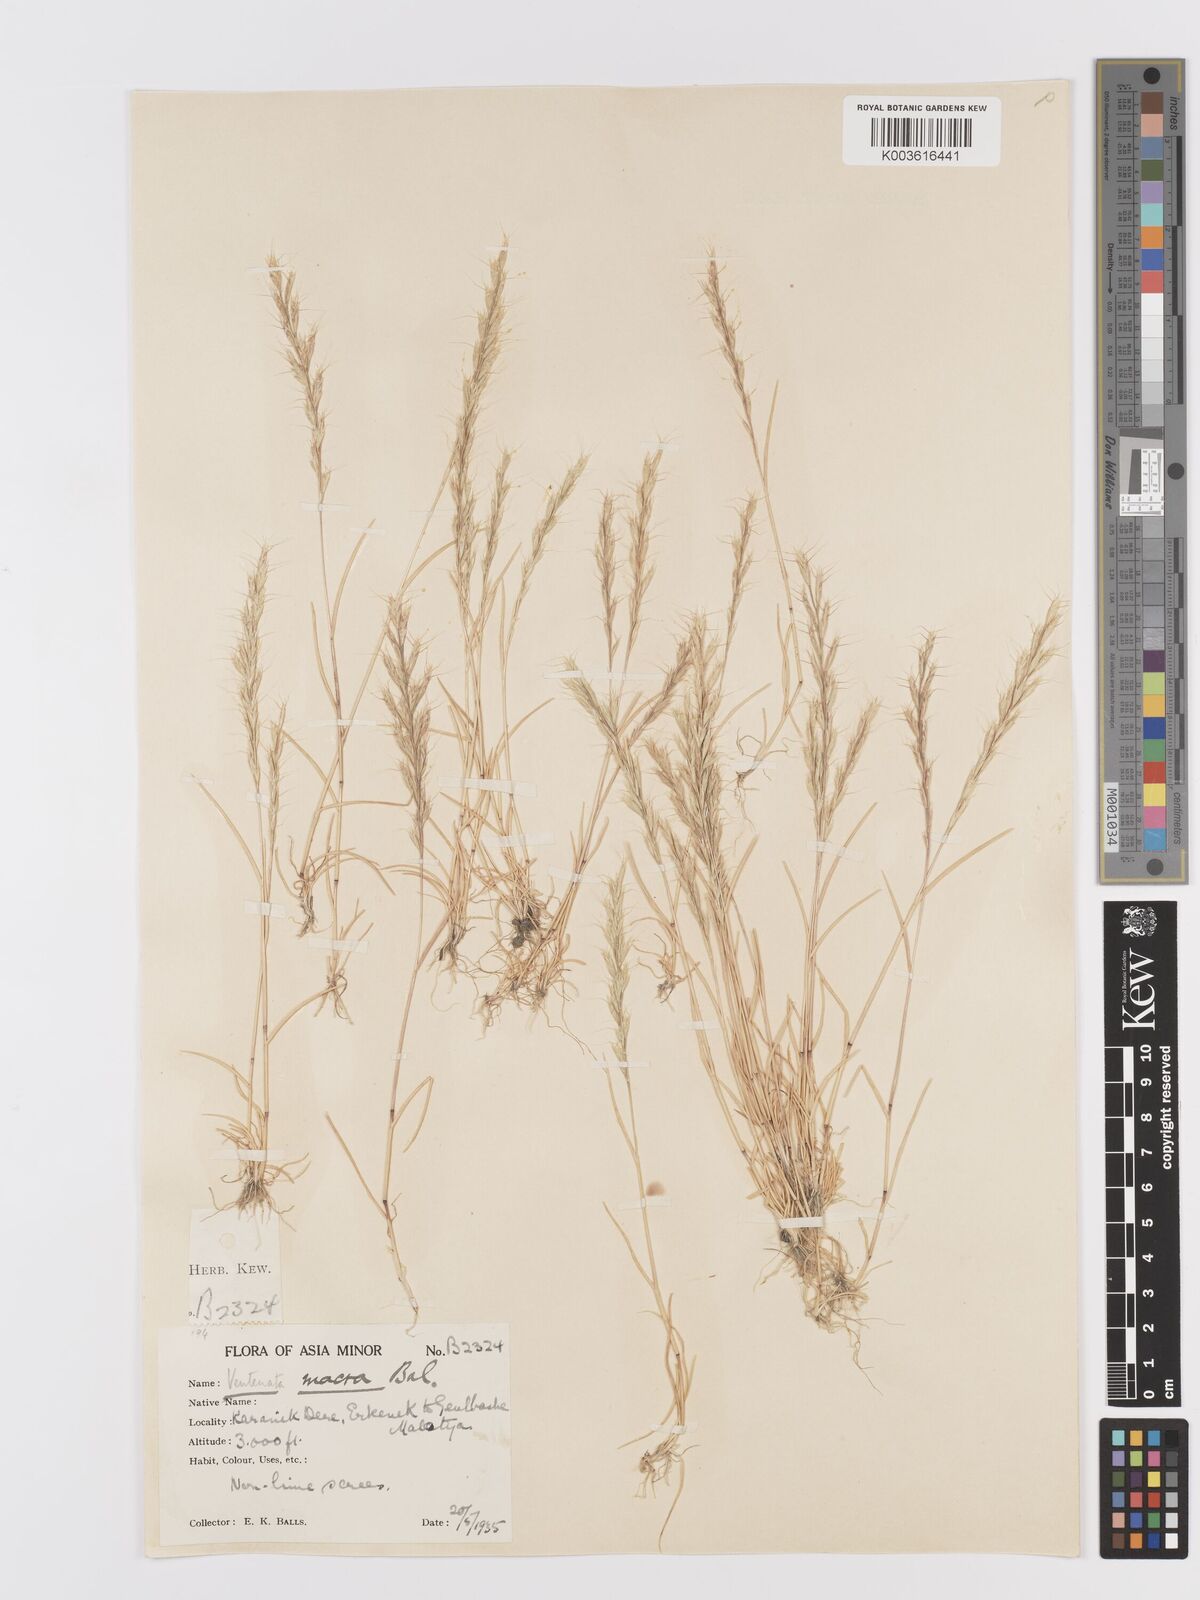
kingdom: Plantae
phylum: Tracheophyta
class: Liliopsida
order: Poales
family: Poaceae
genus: Ventenata
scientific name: Ventenata macra
